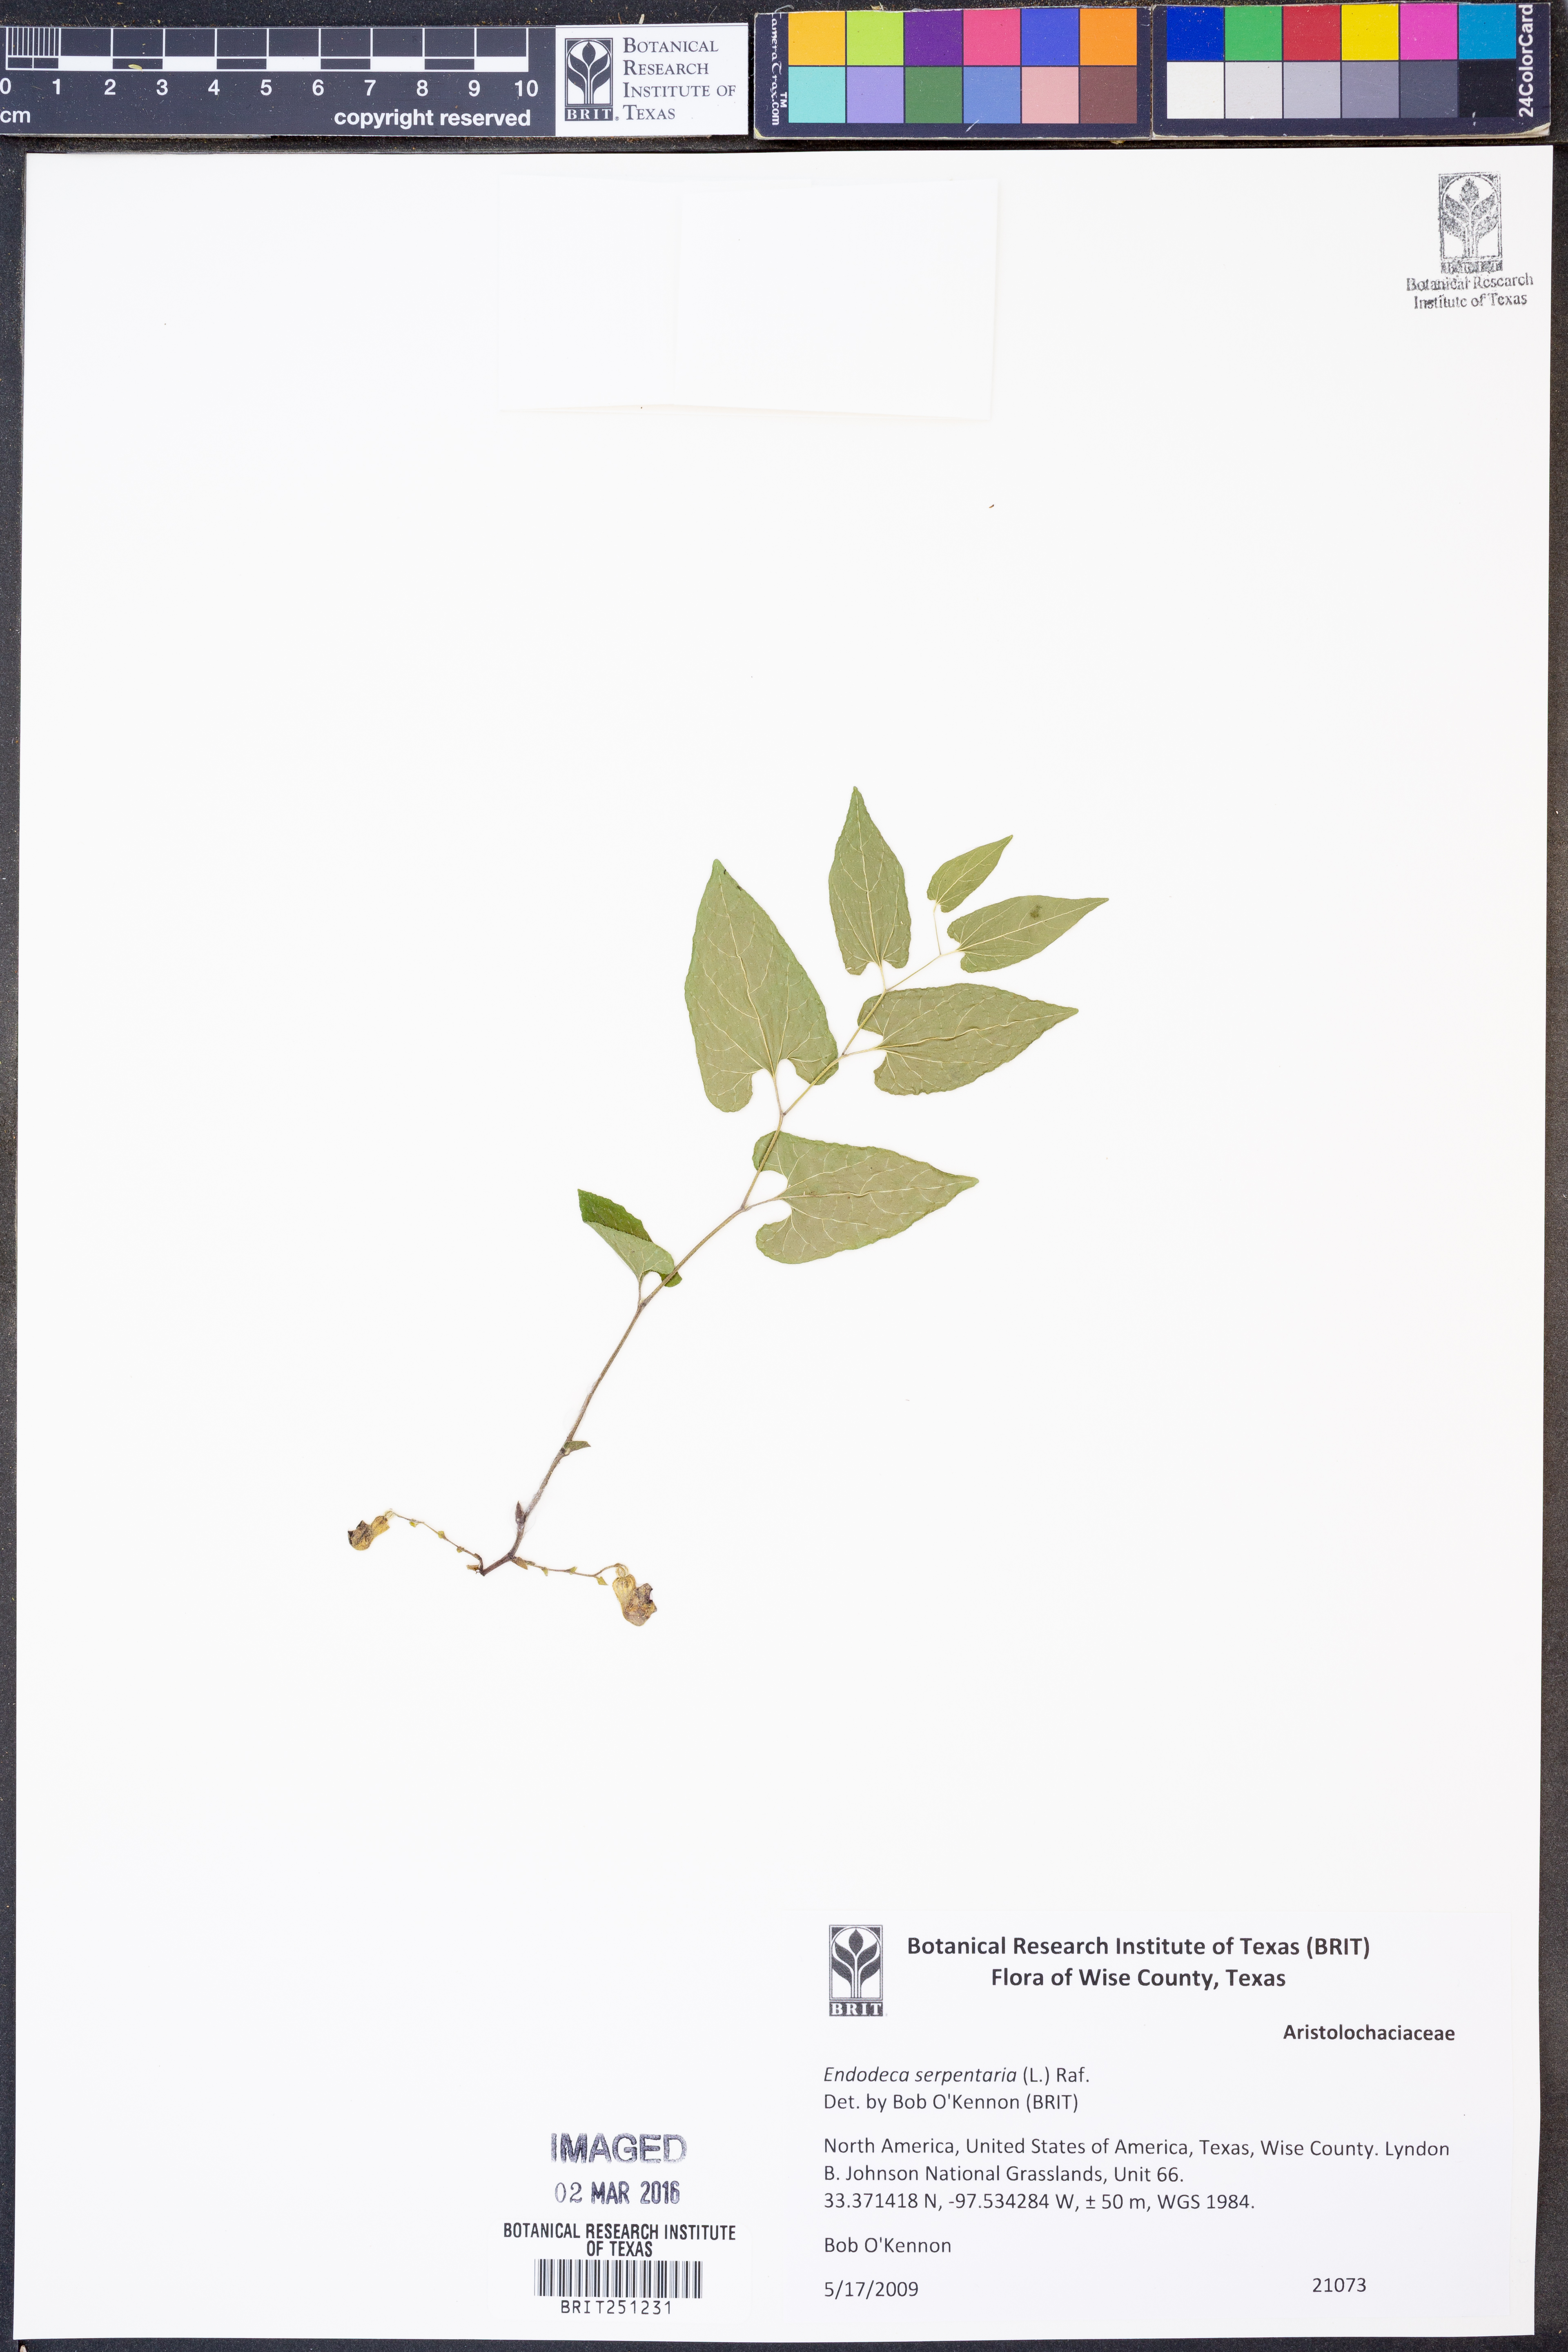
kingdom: Plantae
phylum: Tracheophyta
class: Magnoliopsida
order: Piperales
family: Aristolochiaceae
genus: Endodeca
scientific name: Endodeca serpentaria
